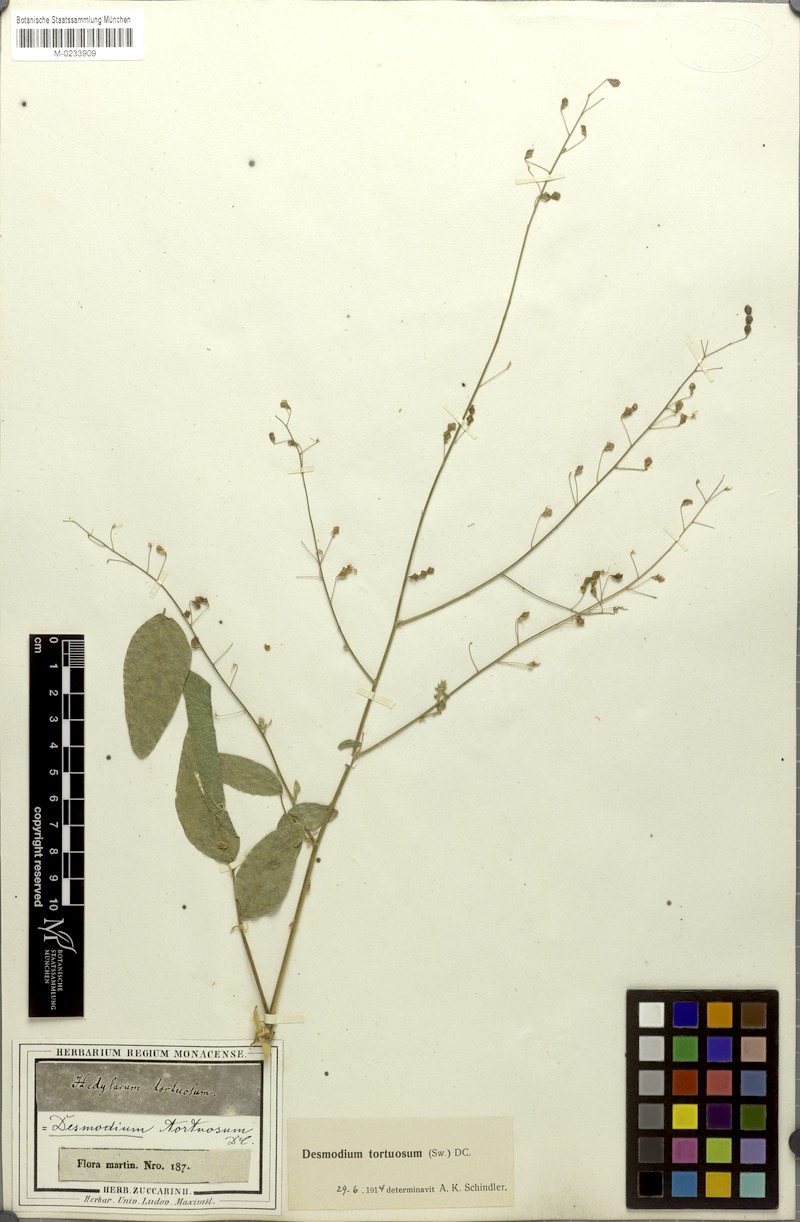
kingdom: Plantae
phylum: Tracheophyta
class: Magnoliopsida
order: Fabales
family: Fabaceae
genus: Desmodium
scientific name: Desmodium tortuosum
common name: Dixie ticktrefoil
